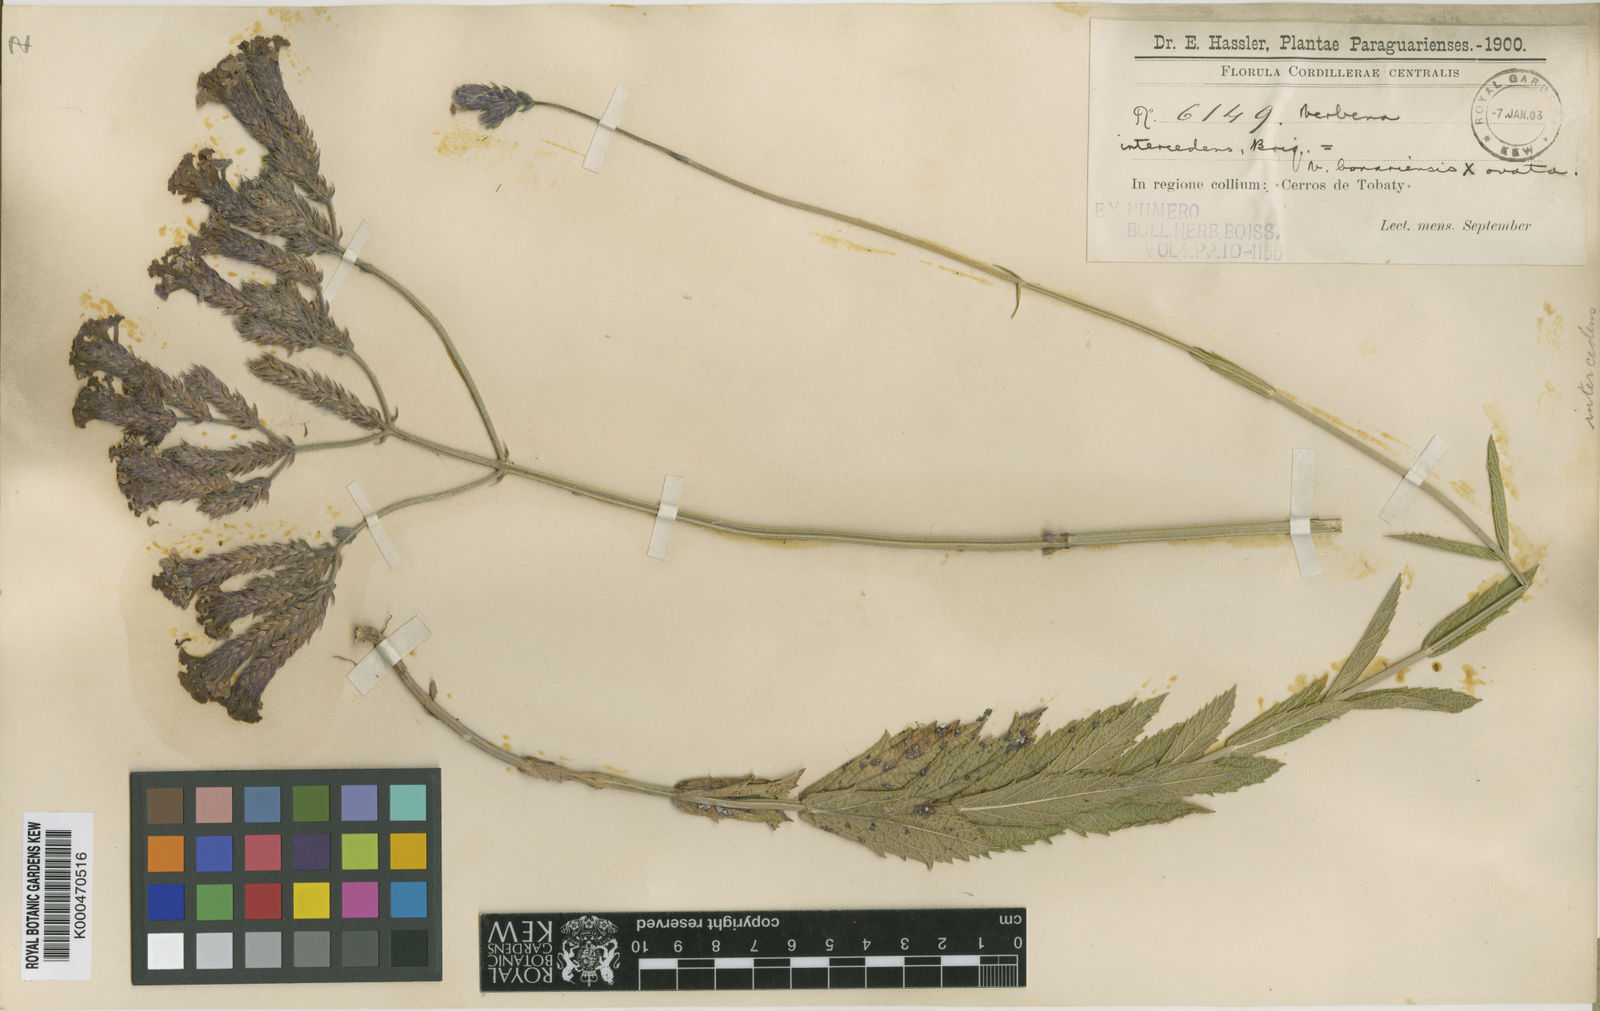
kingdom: Plantae
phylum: Tracheophyta
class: Magnoliopsida
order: Lamiales
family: Verbenaceae
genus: Verbena
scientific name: Verbena bonariensis
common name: Purpletop vervain
